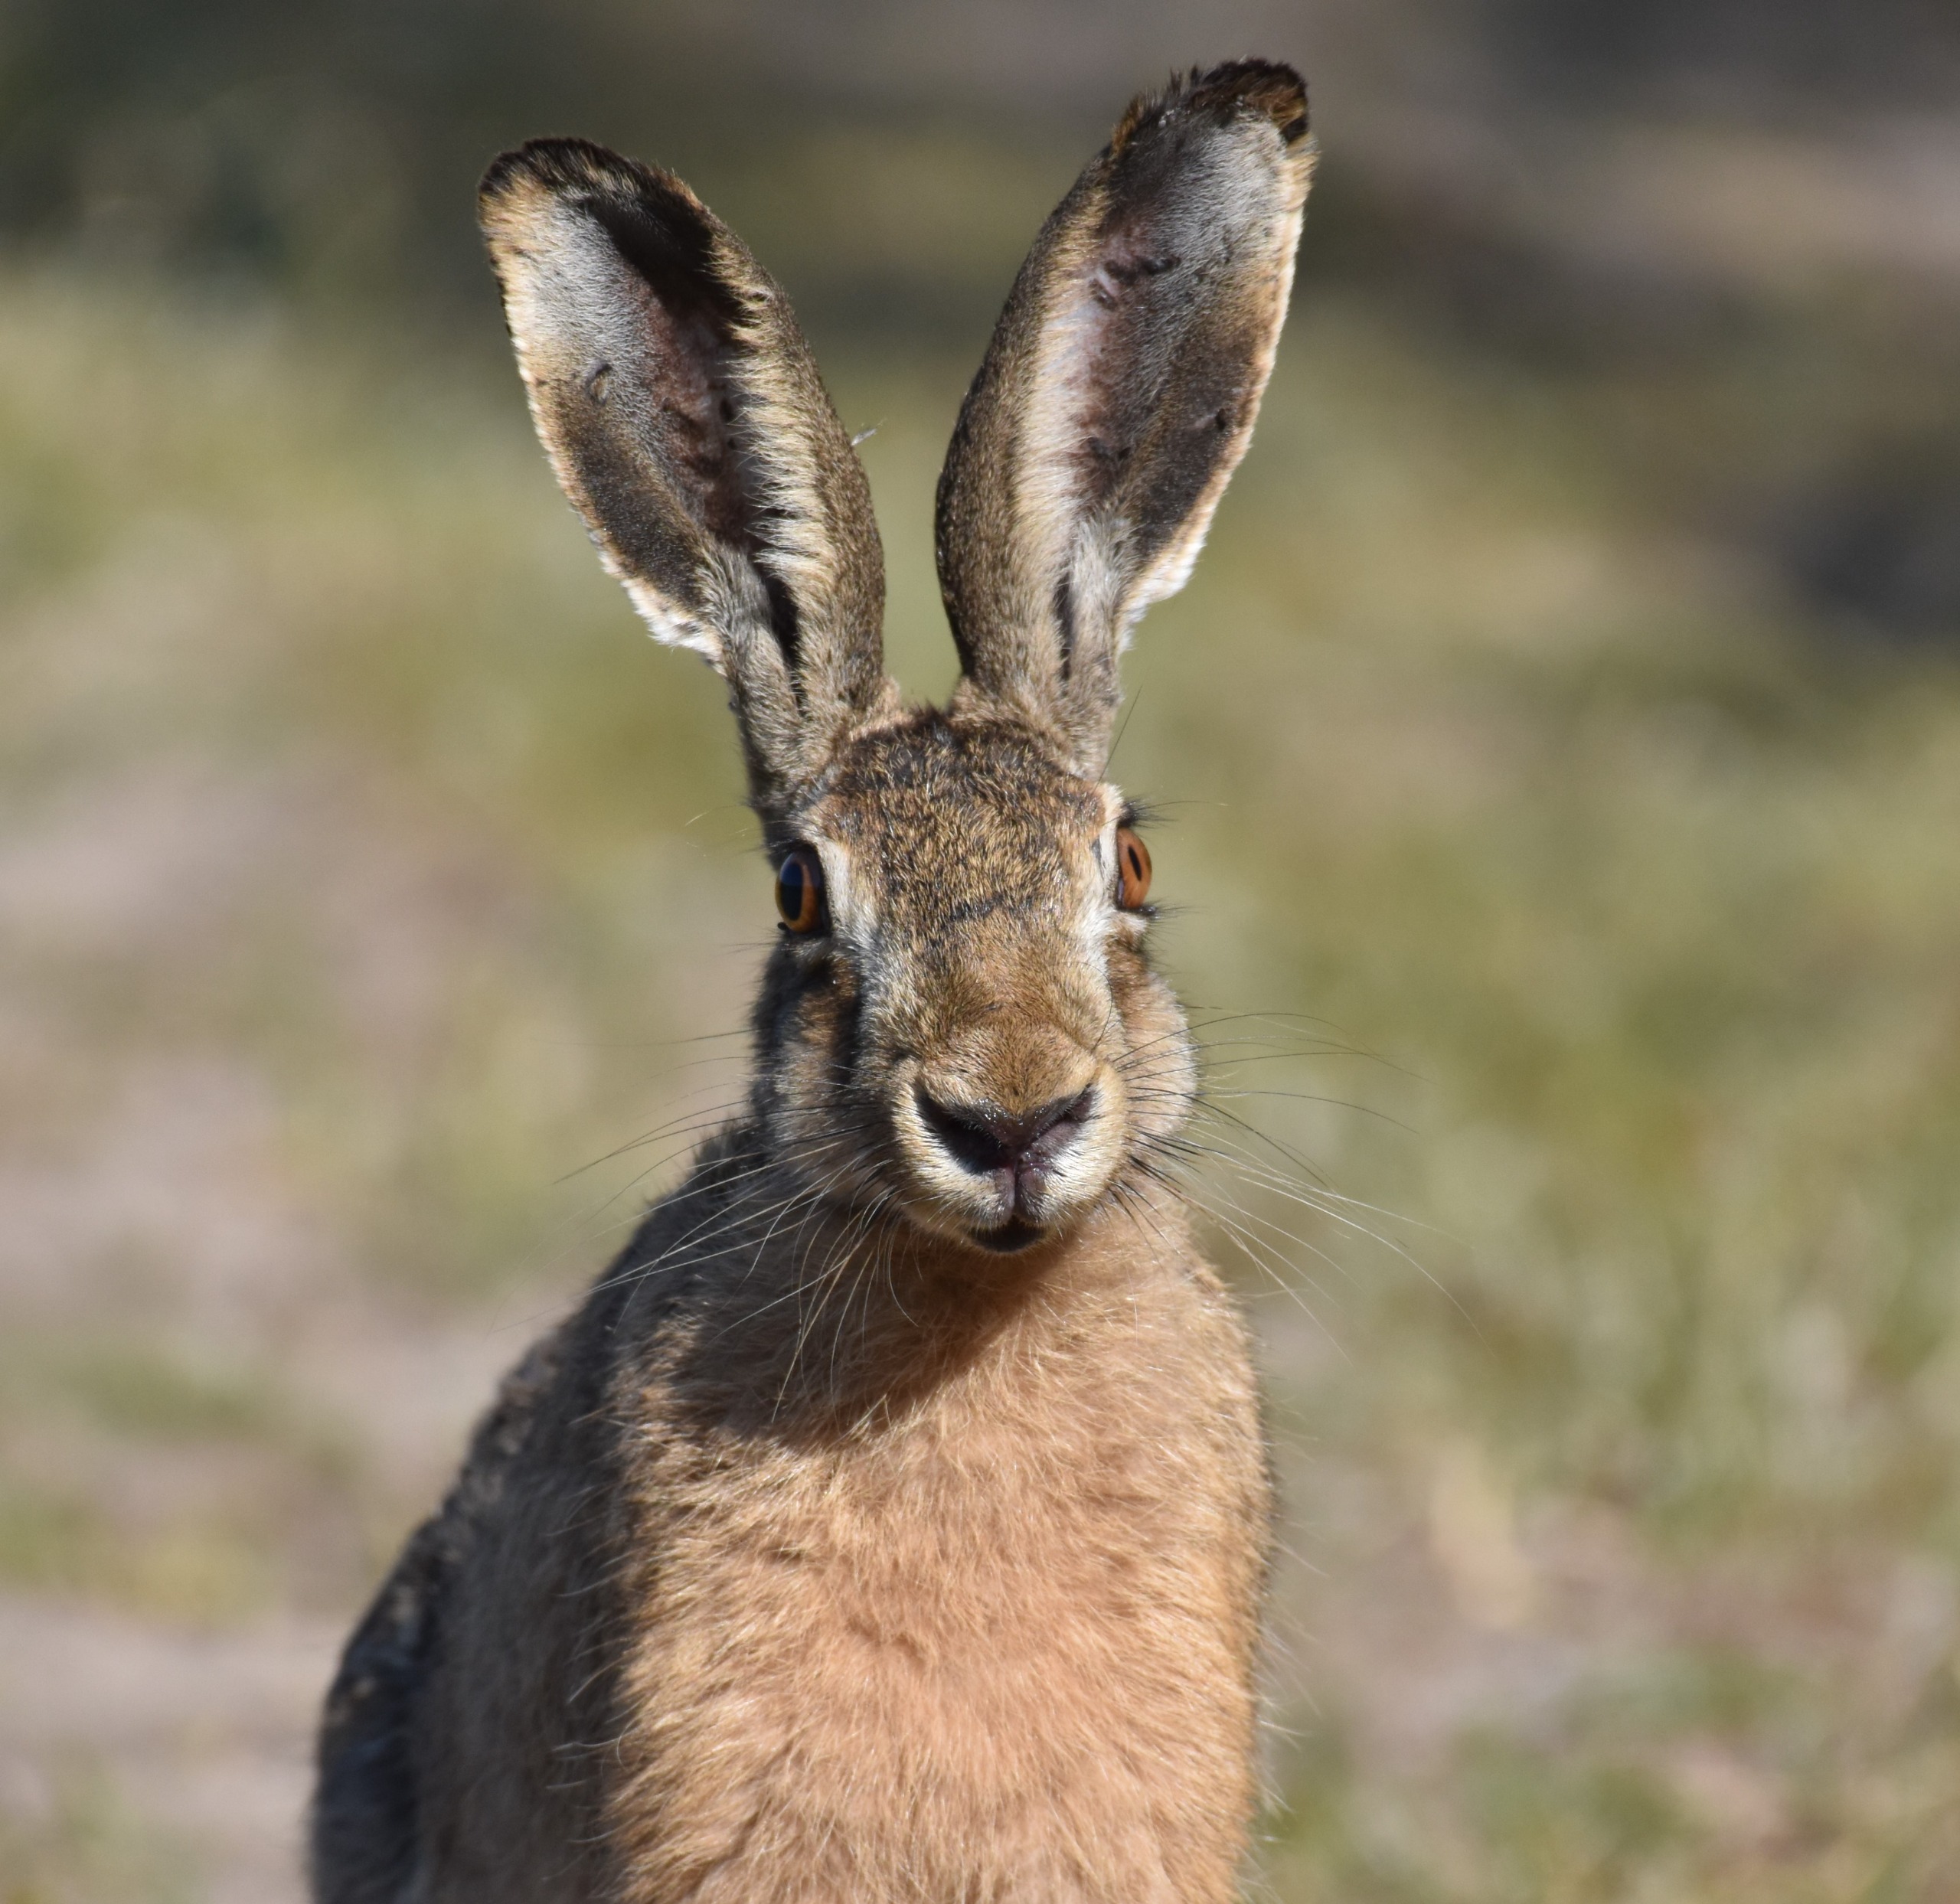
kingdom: Animalia
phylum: Chordata
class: Mammalia
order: Lagomorpha
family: Leporidae
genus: Lepus
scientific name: Lepus europaeus
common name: Hare
